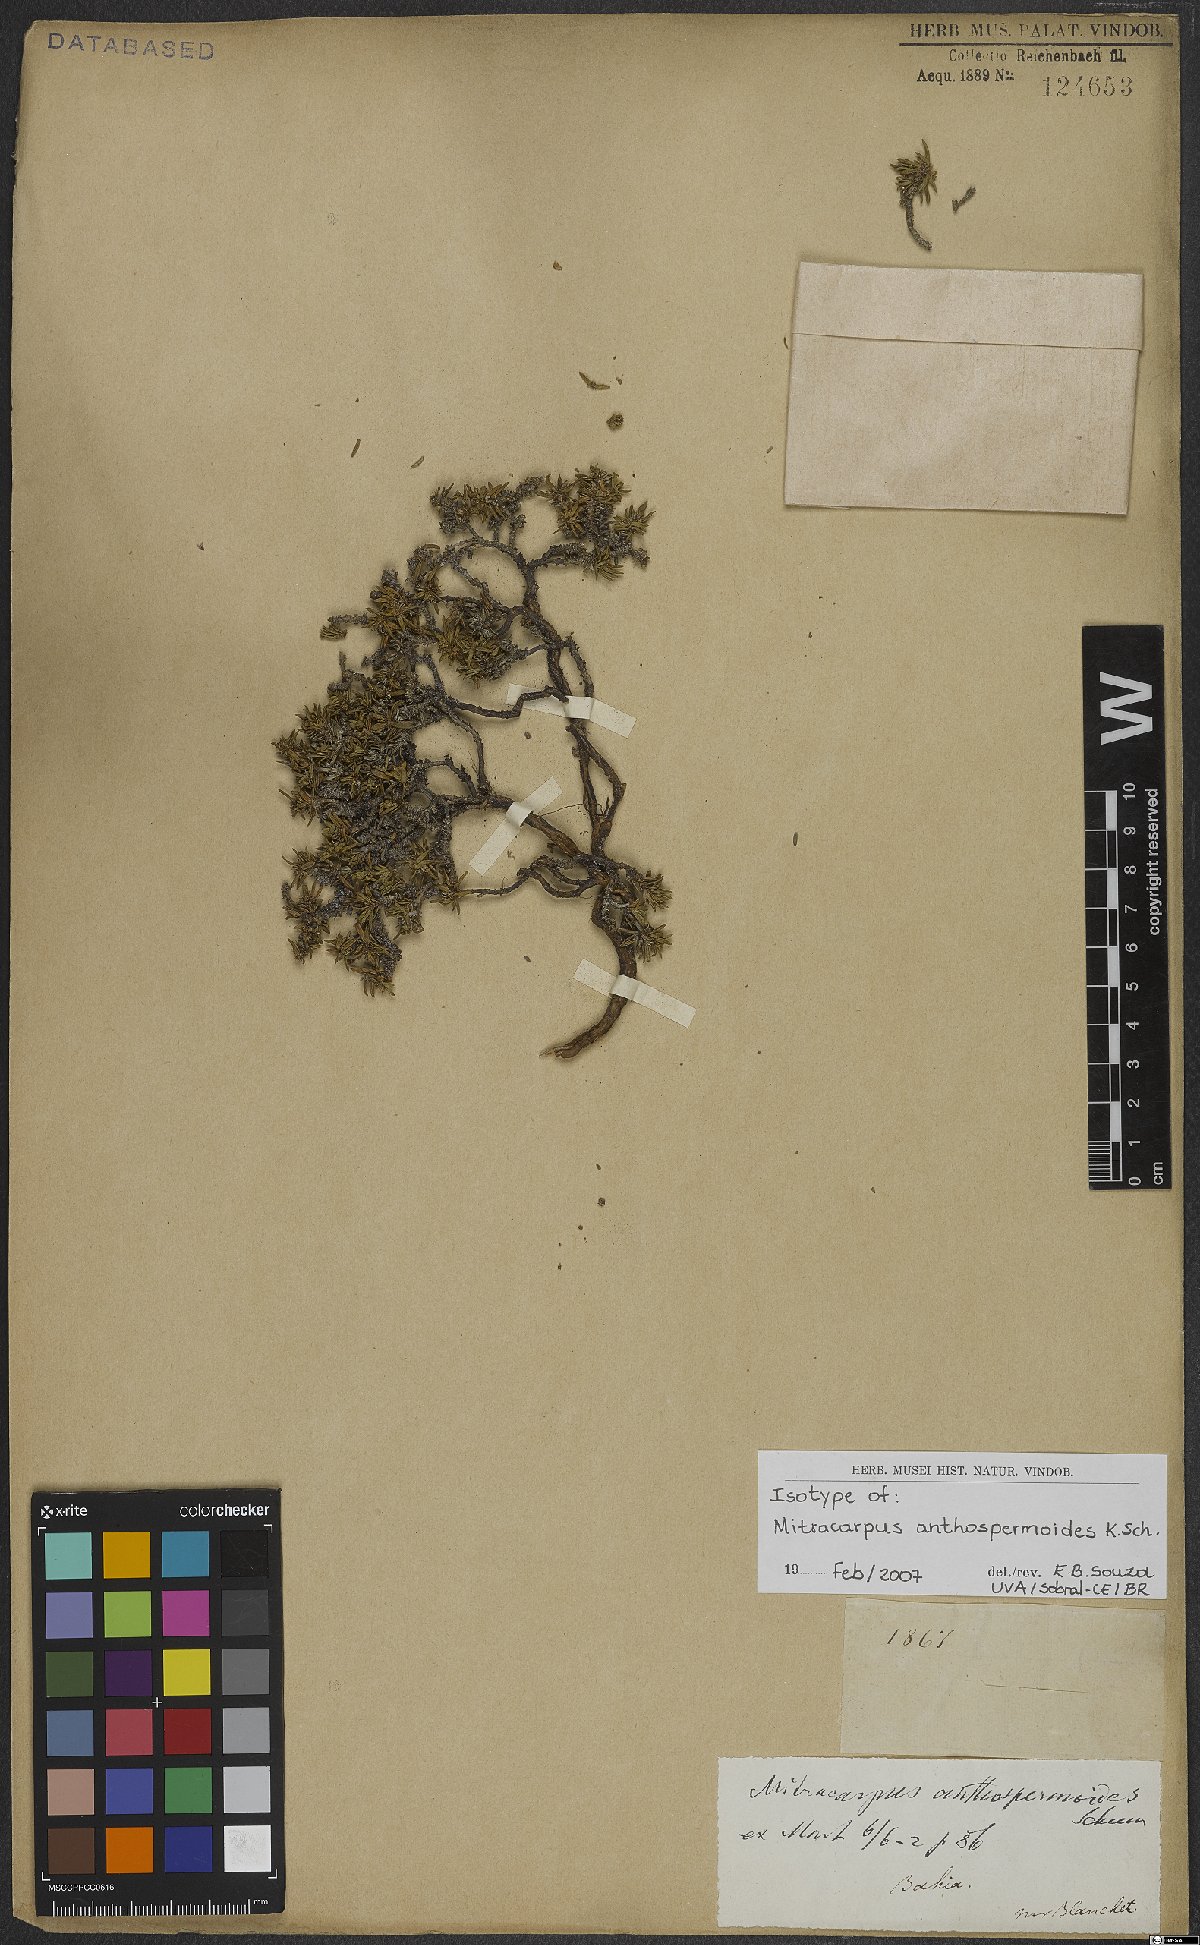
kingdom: Plantae
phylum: Tracheophyta
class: Magnoliopsida
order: Gentianales
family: Rubiaceae
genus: Mitracarpus
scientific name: Mitracarpus anthospermoides
